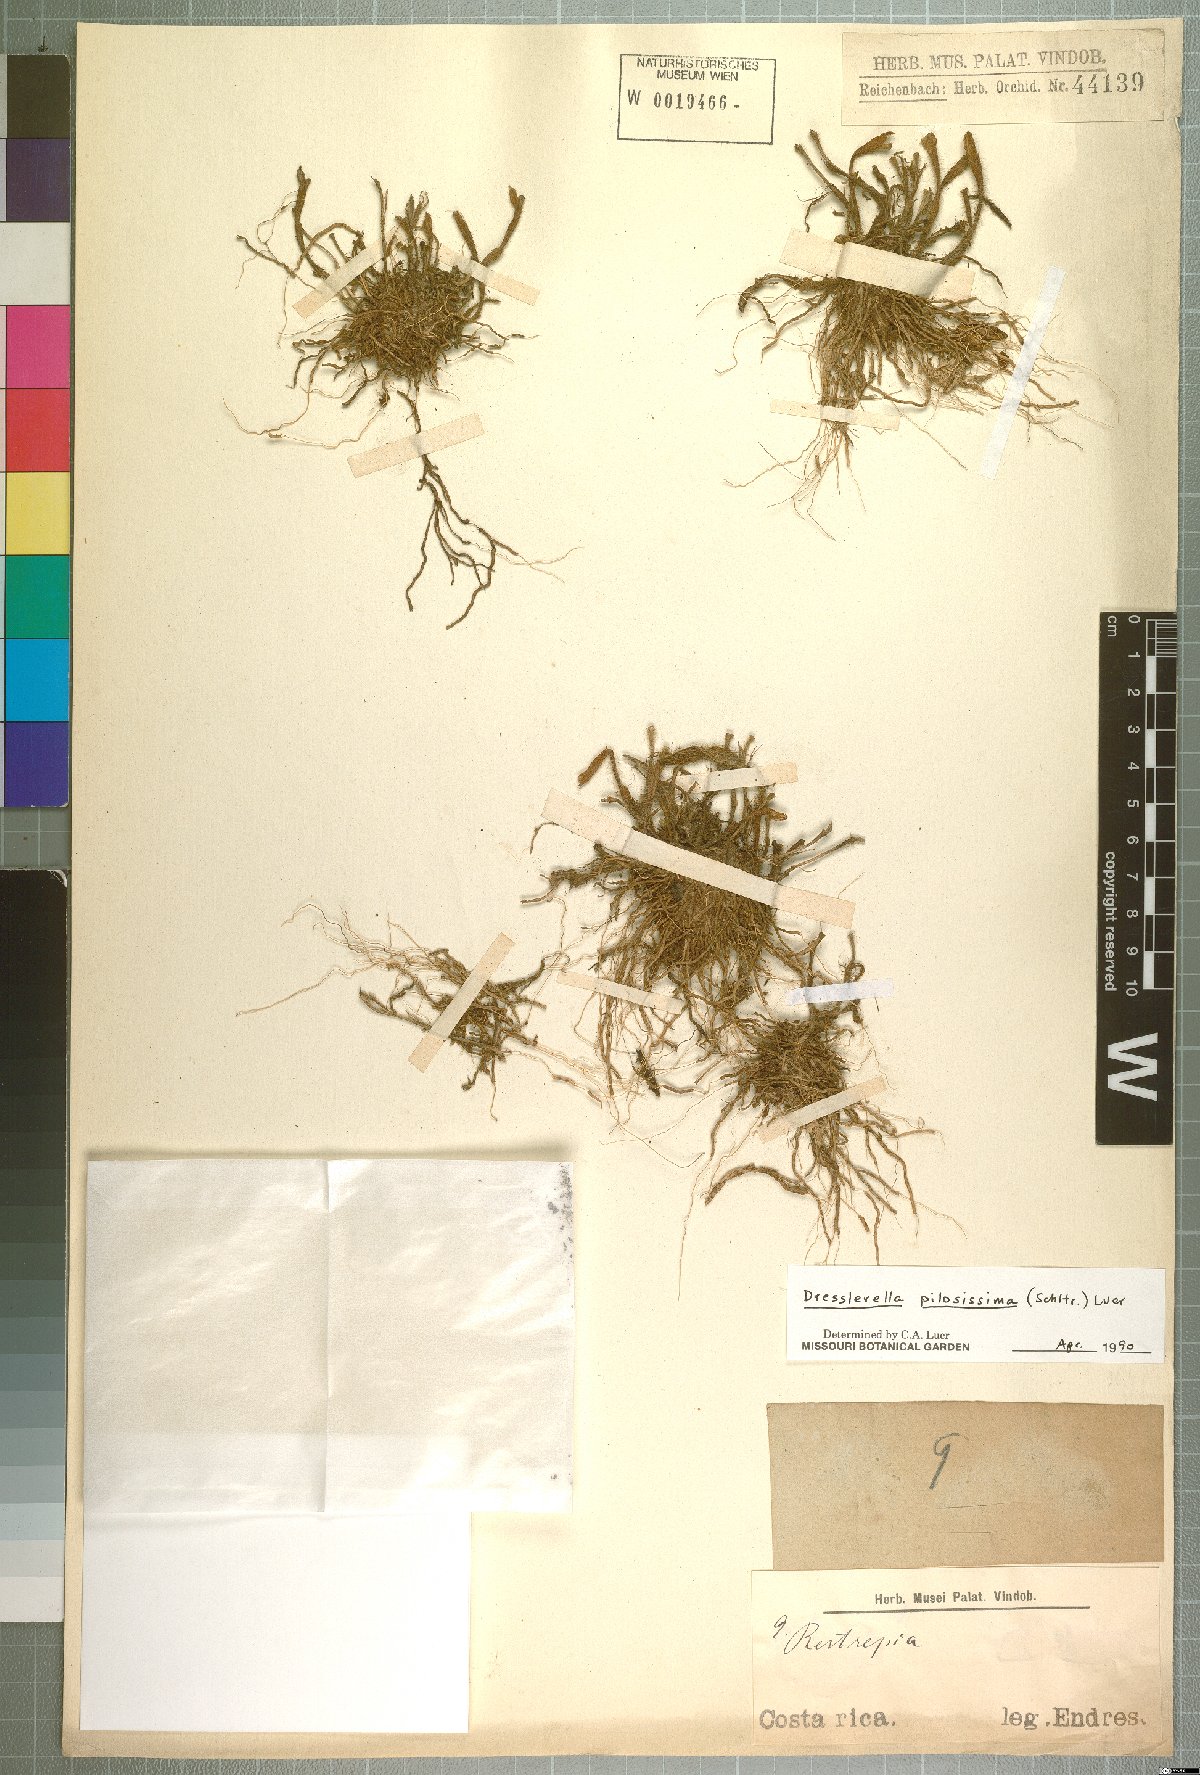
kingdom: Plantae
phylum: Tracheophyta
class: Liliopsida
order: Asparagales
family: Orchidaceae
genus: Dresslerella
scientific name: Dresslerella pilosissima
